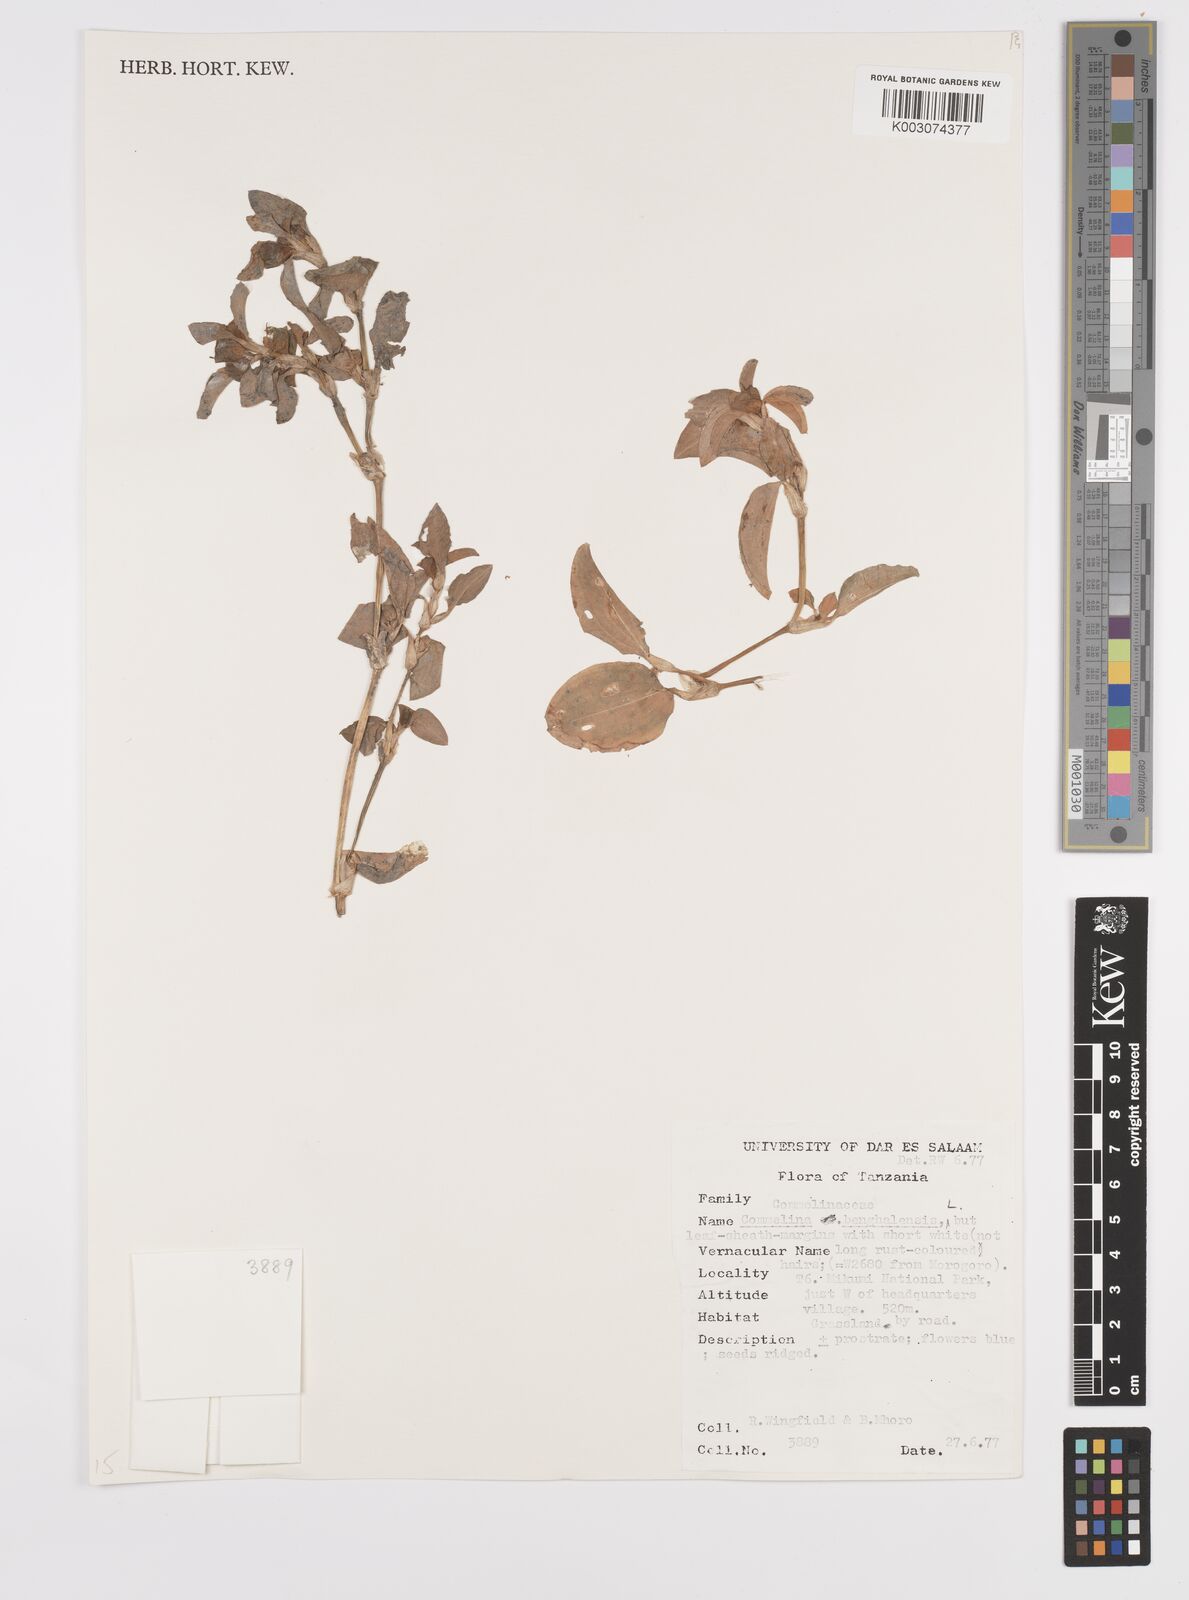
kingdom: Plantae
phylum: Tracheophyta
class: Liliopsida
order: Commelinales
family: Commelinaceae
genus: Commelina
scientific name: Commelina benghalensis
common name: Jio
